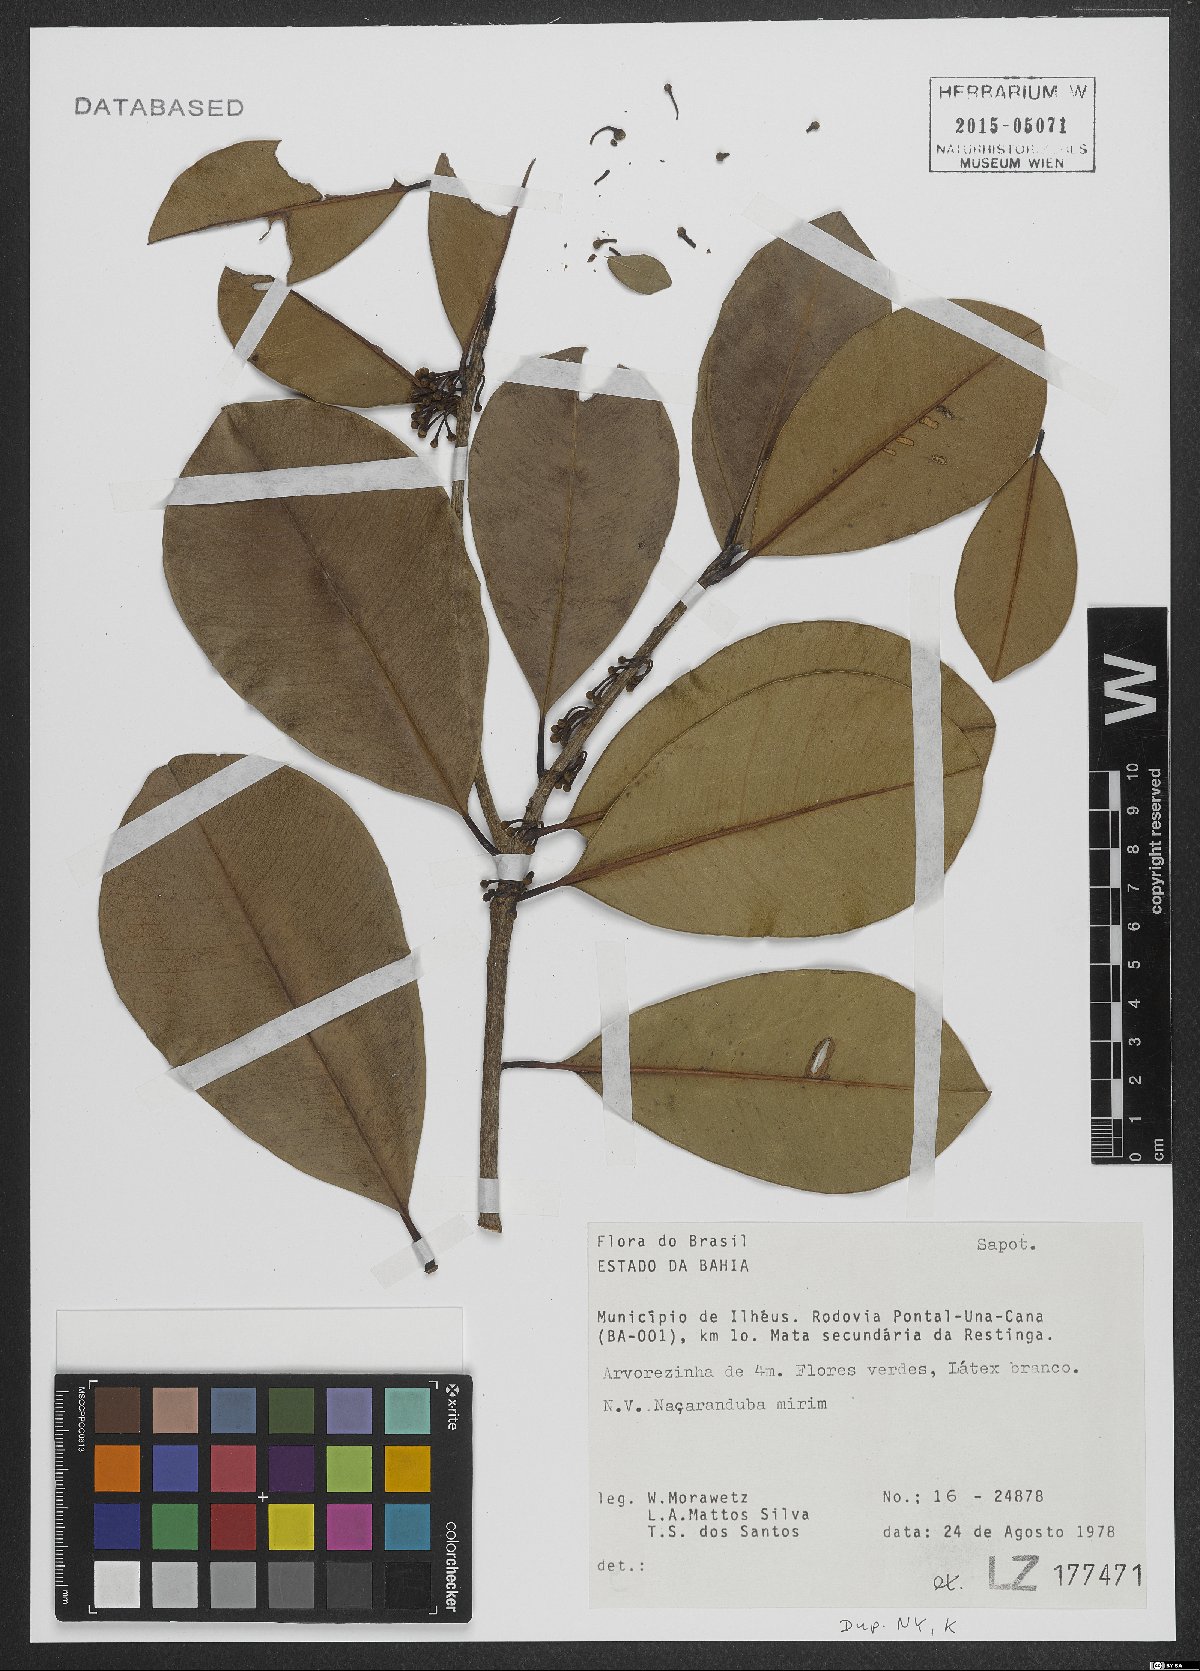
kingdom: Plantae
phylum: Tracheophyta
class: Magnoliopsida
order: Ericales
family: Sapotaceae
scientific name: Sapotaceae
